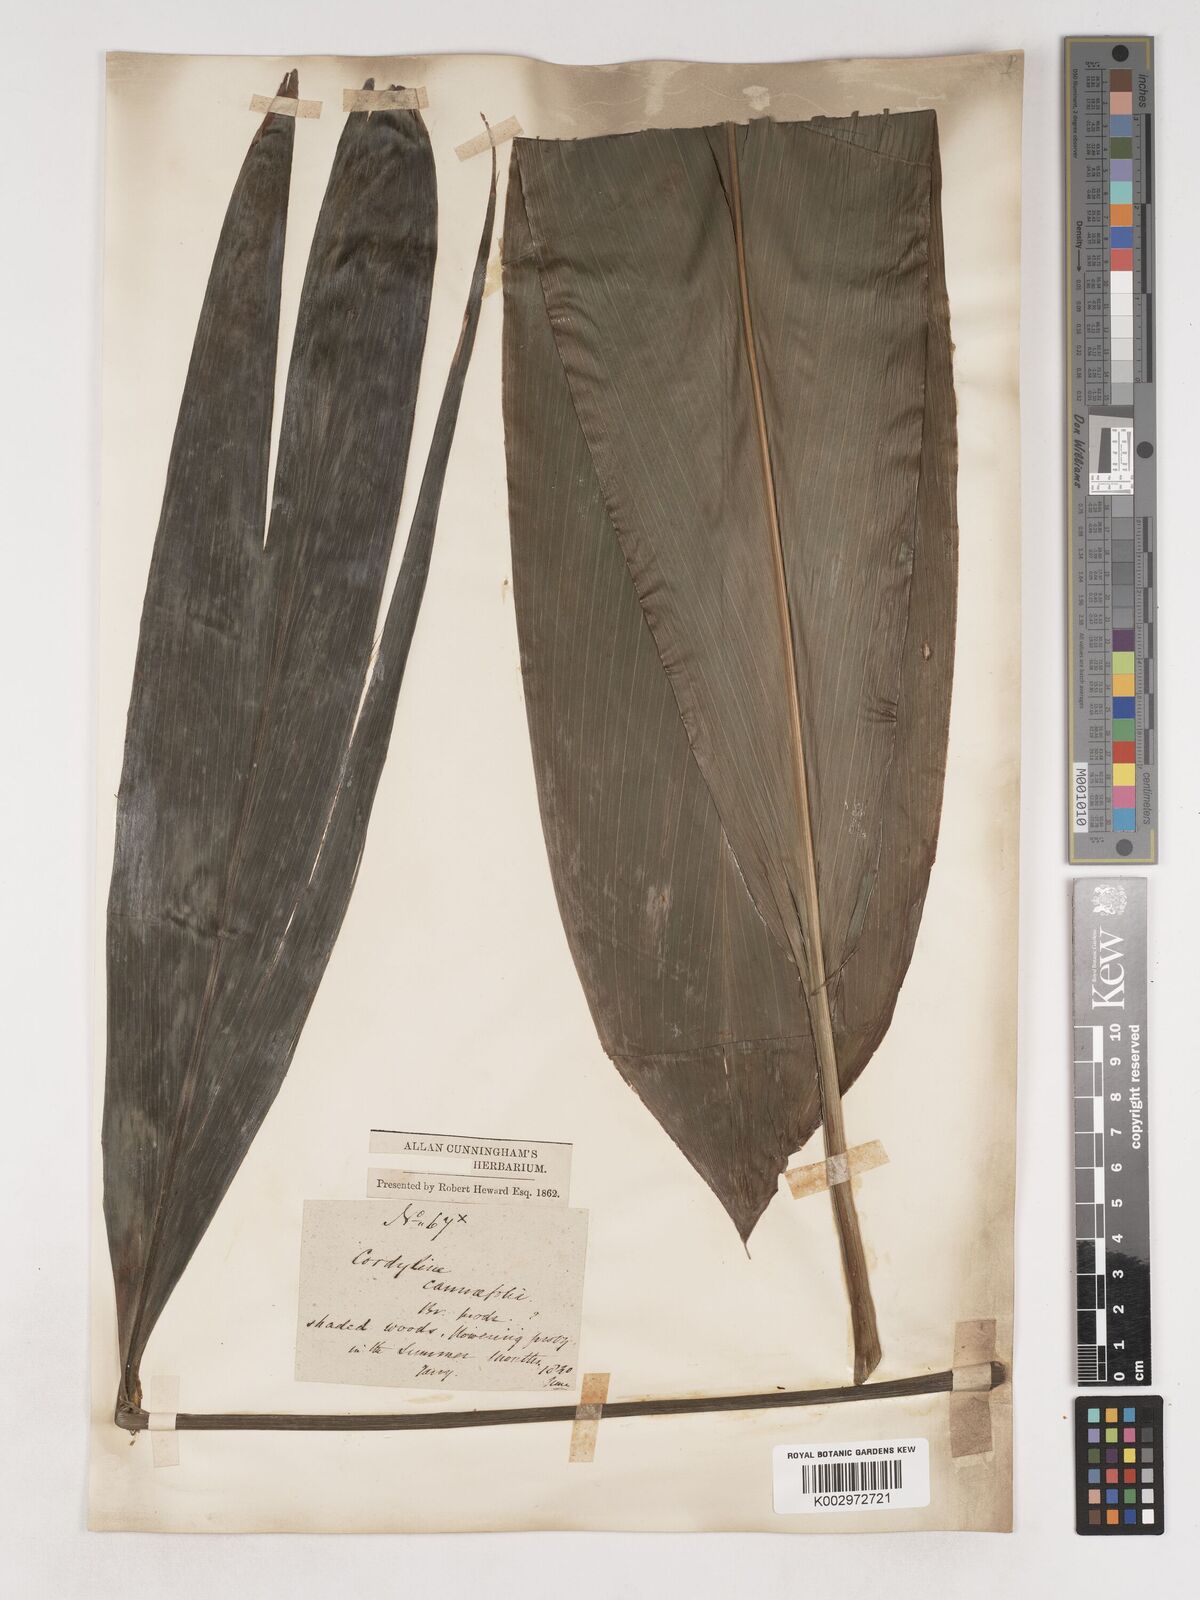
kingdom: Plantae
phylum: Tracheophyta
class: Liliopsida
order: Asparagales
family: Asparagaceae
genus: Cordyline
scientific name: Cordyline fruticosa
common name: Good-luck-plant
